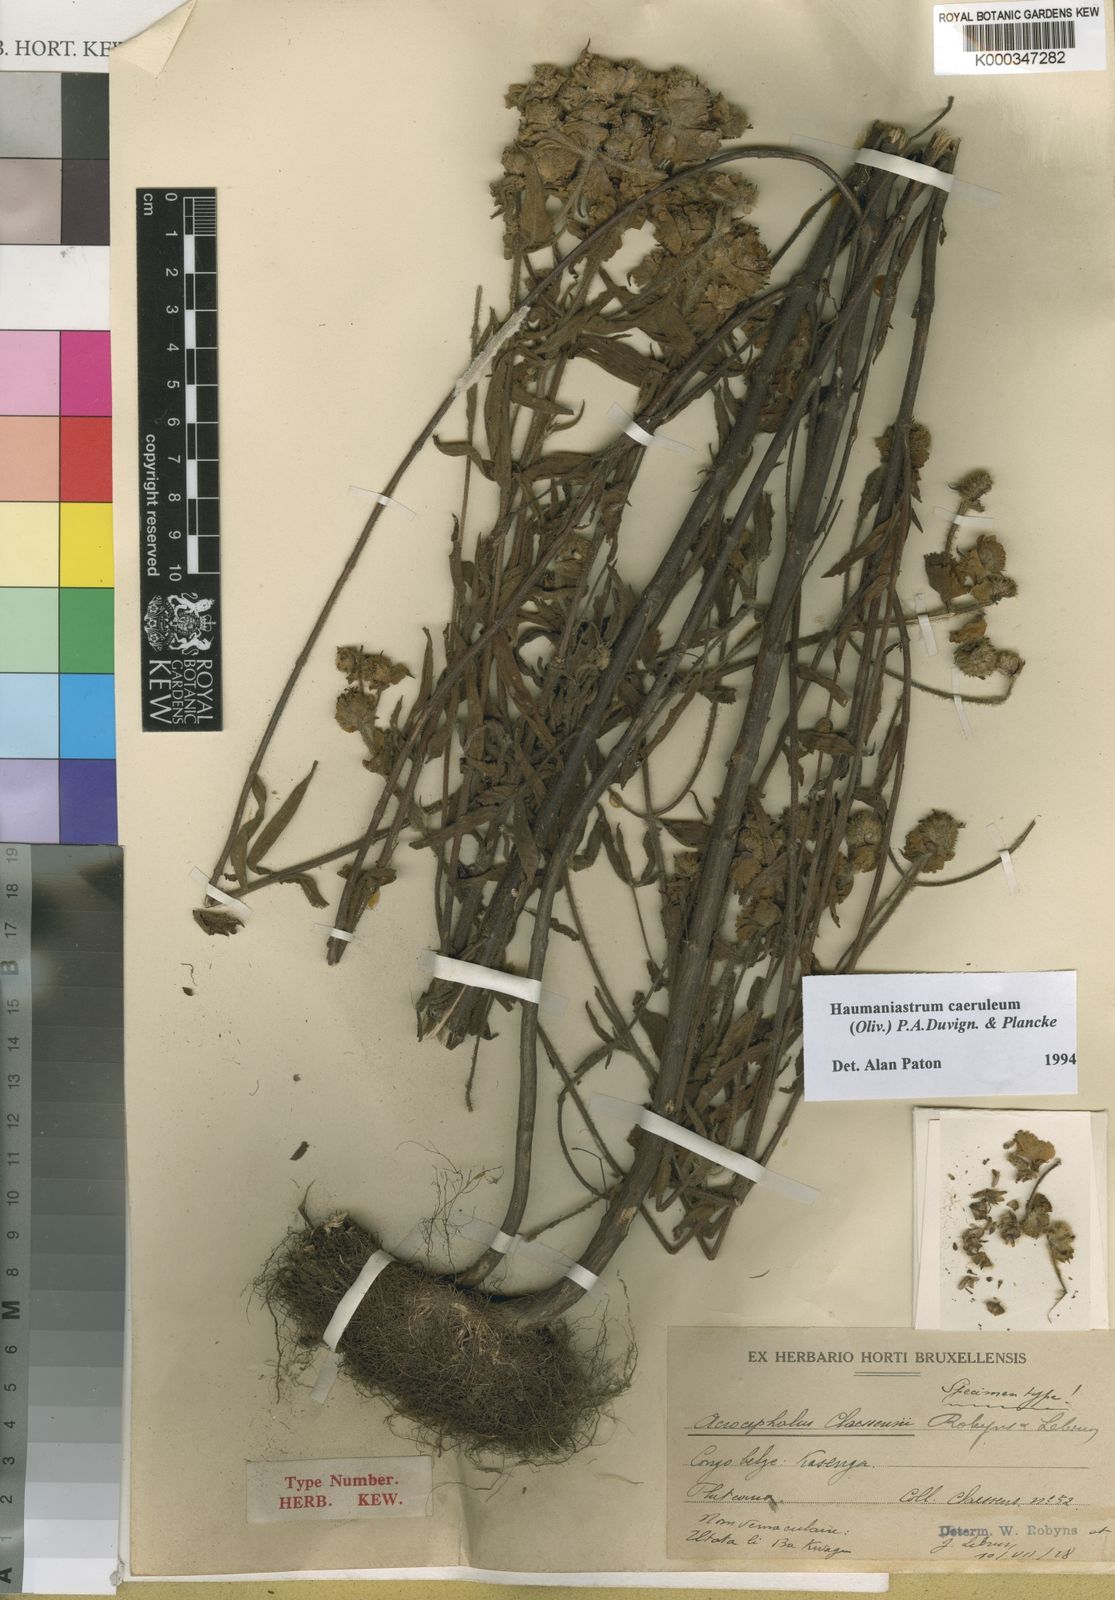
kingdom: Plantae
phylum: Tracheophyta
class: Magnoliopsida
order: Lamiales
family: Lamiaceae
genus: Haumaniastrum
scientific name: Haumaniastrum caeruleum
